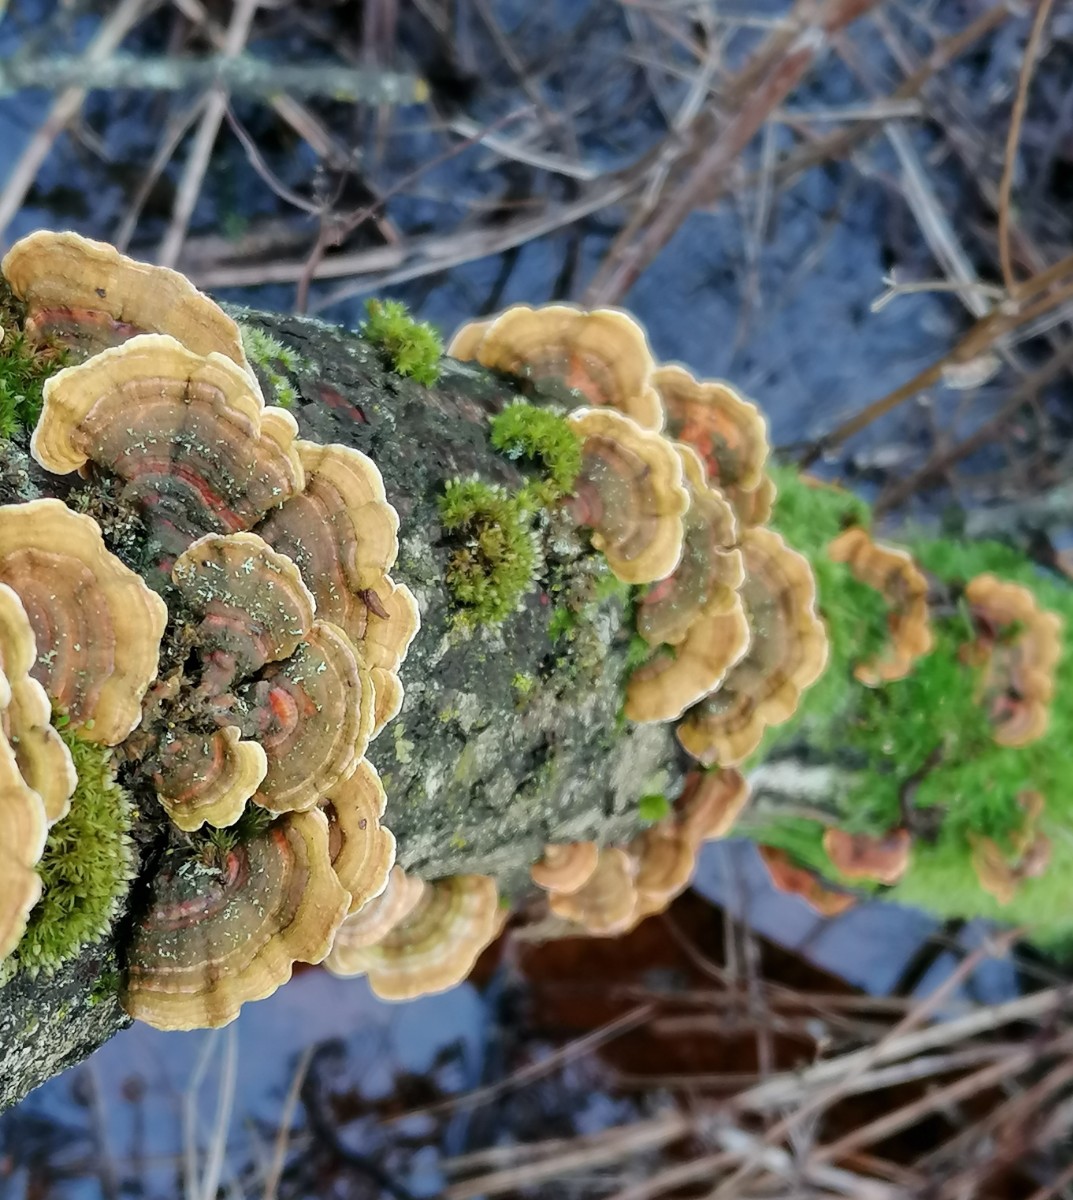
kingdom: Fungi
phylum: Basidiomycota
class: Agaricomycetes
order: Russulales
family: Stereaceae
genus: Stereum
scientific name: Stereum subtomentosum
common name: smuk lædersvamp
